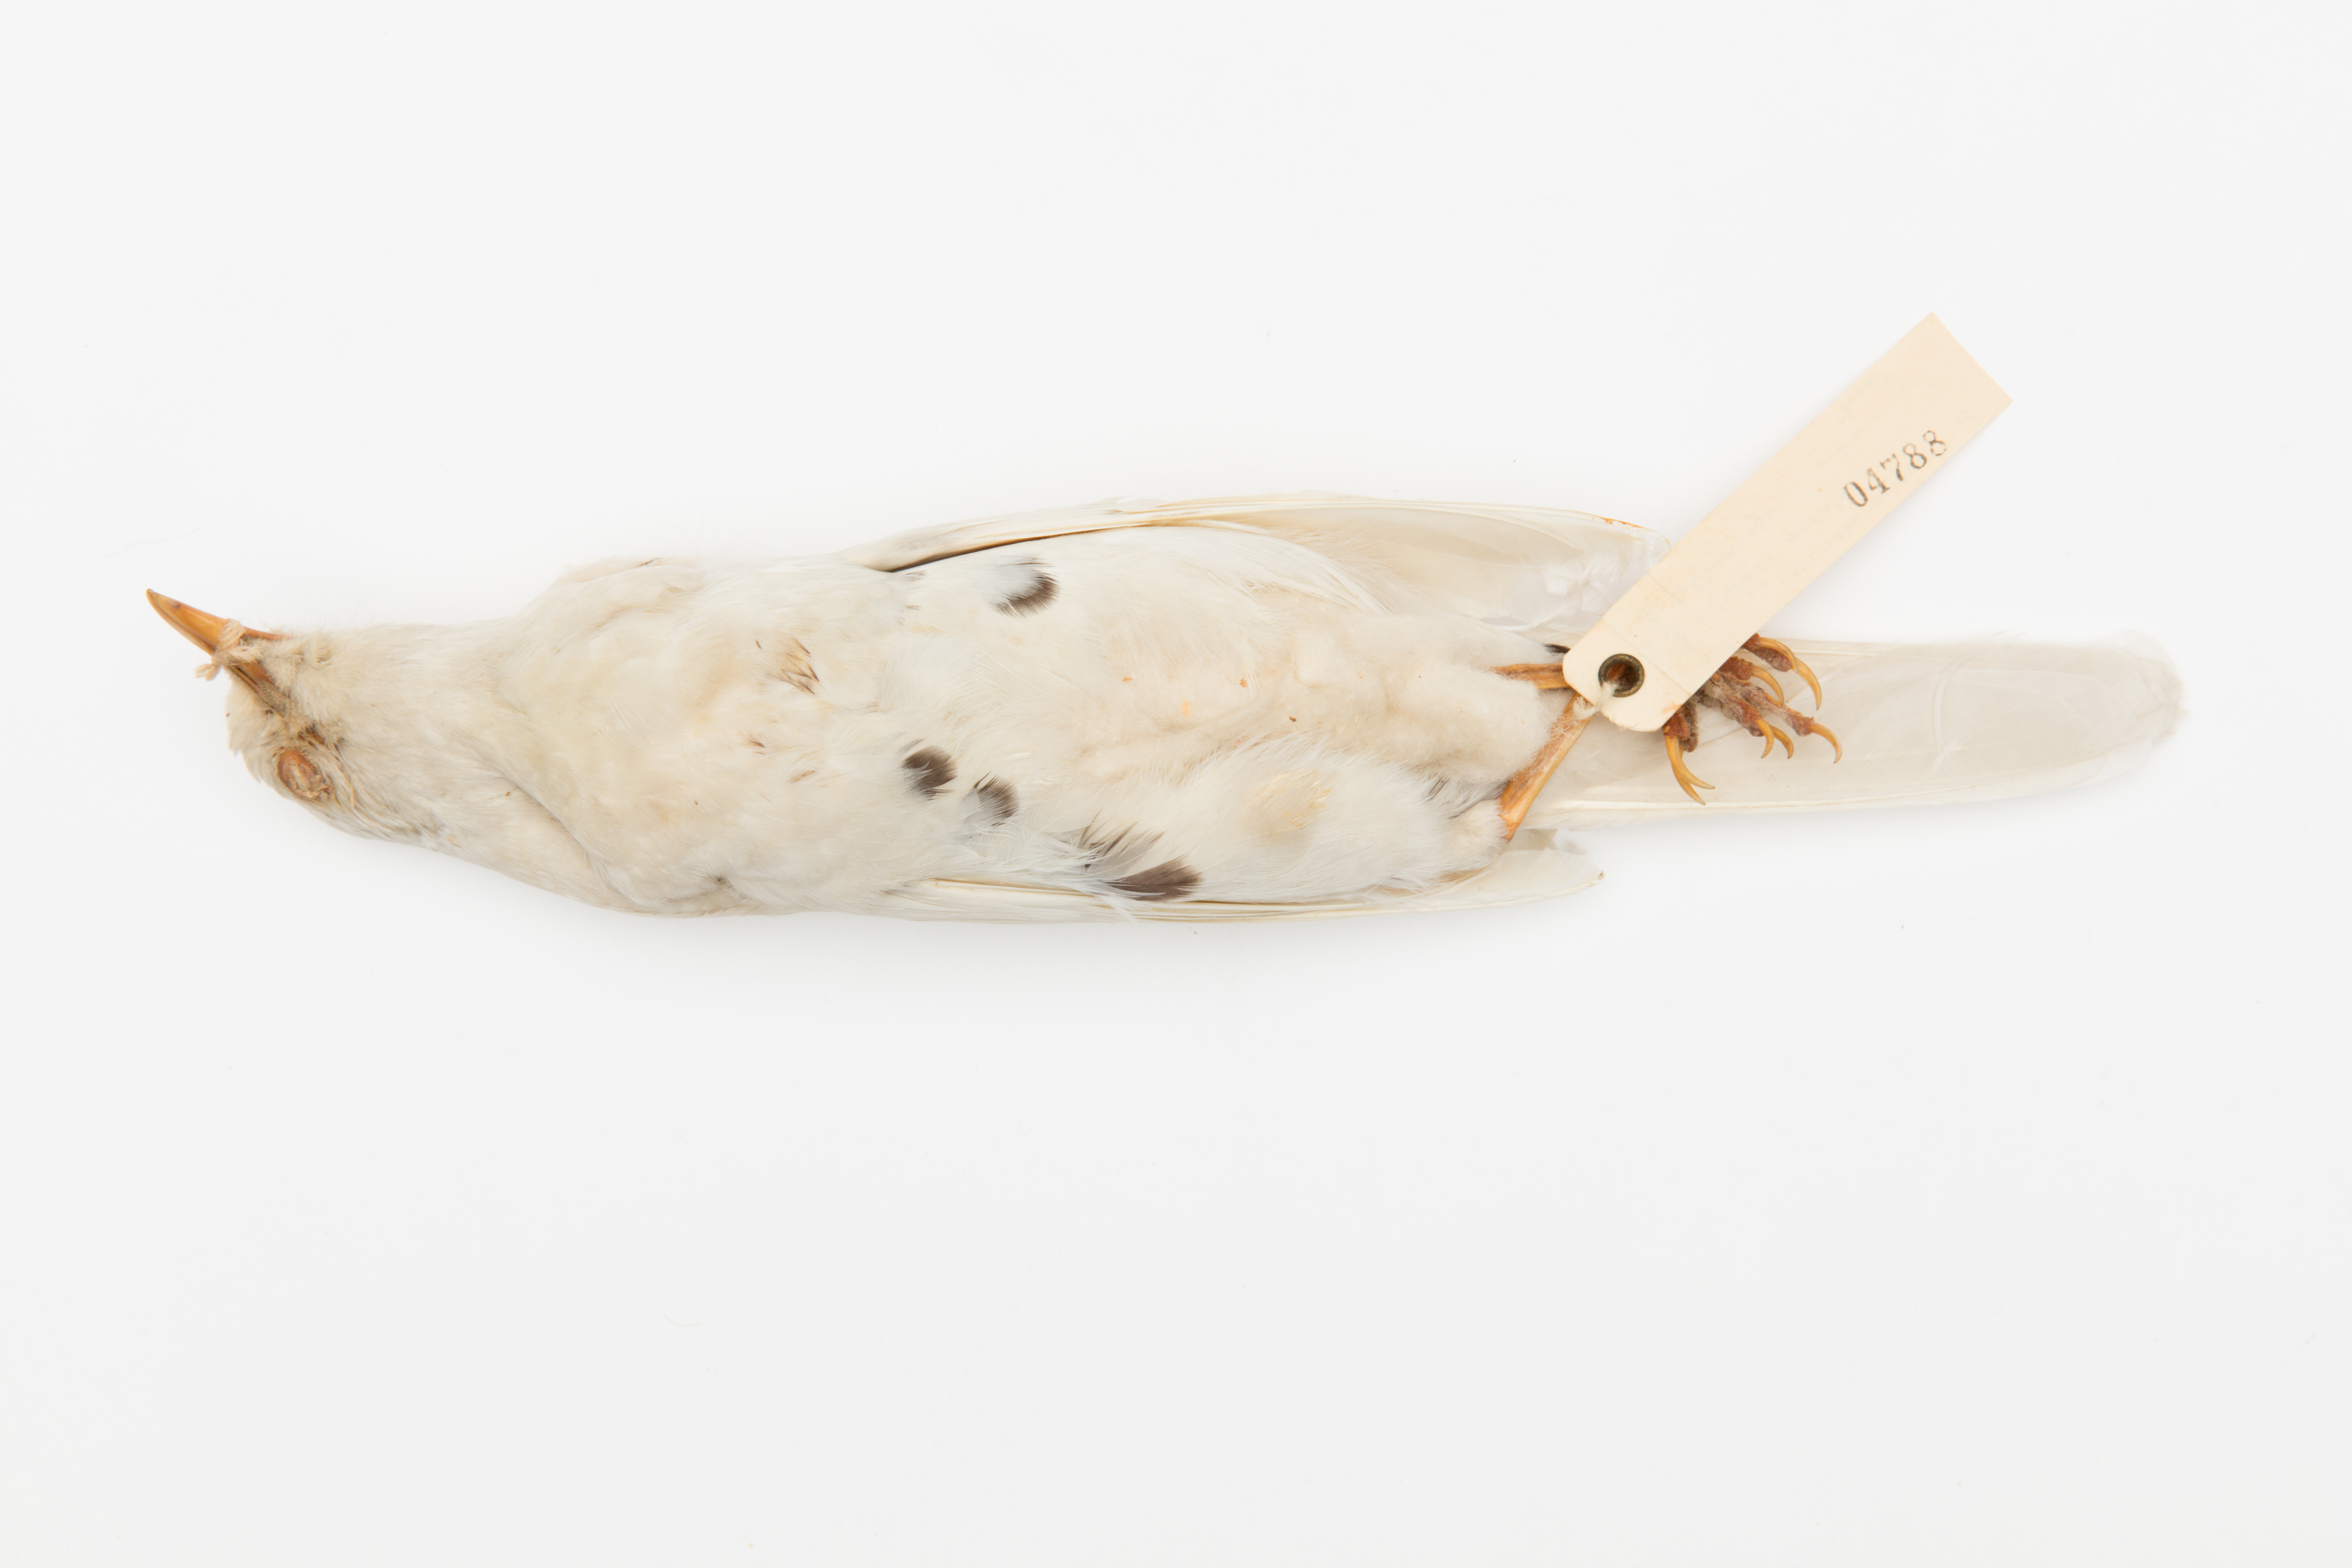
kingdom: Animalia
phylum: Chordata
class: Aves
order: Passeriformes
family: Turdidae
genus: Turdus
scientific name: Turdus merula
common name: Common blackbird
